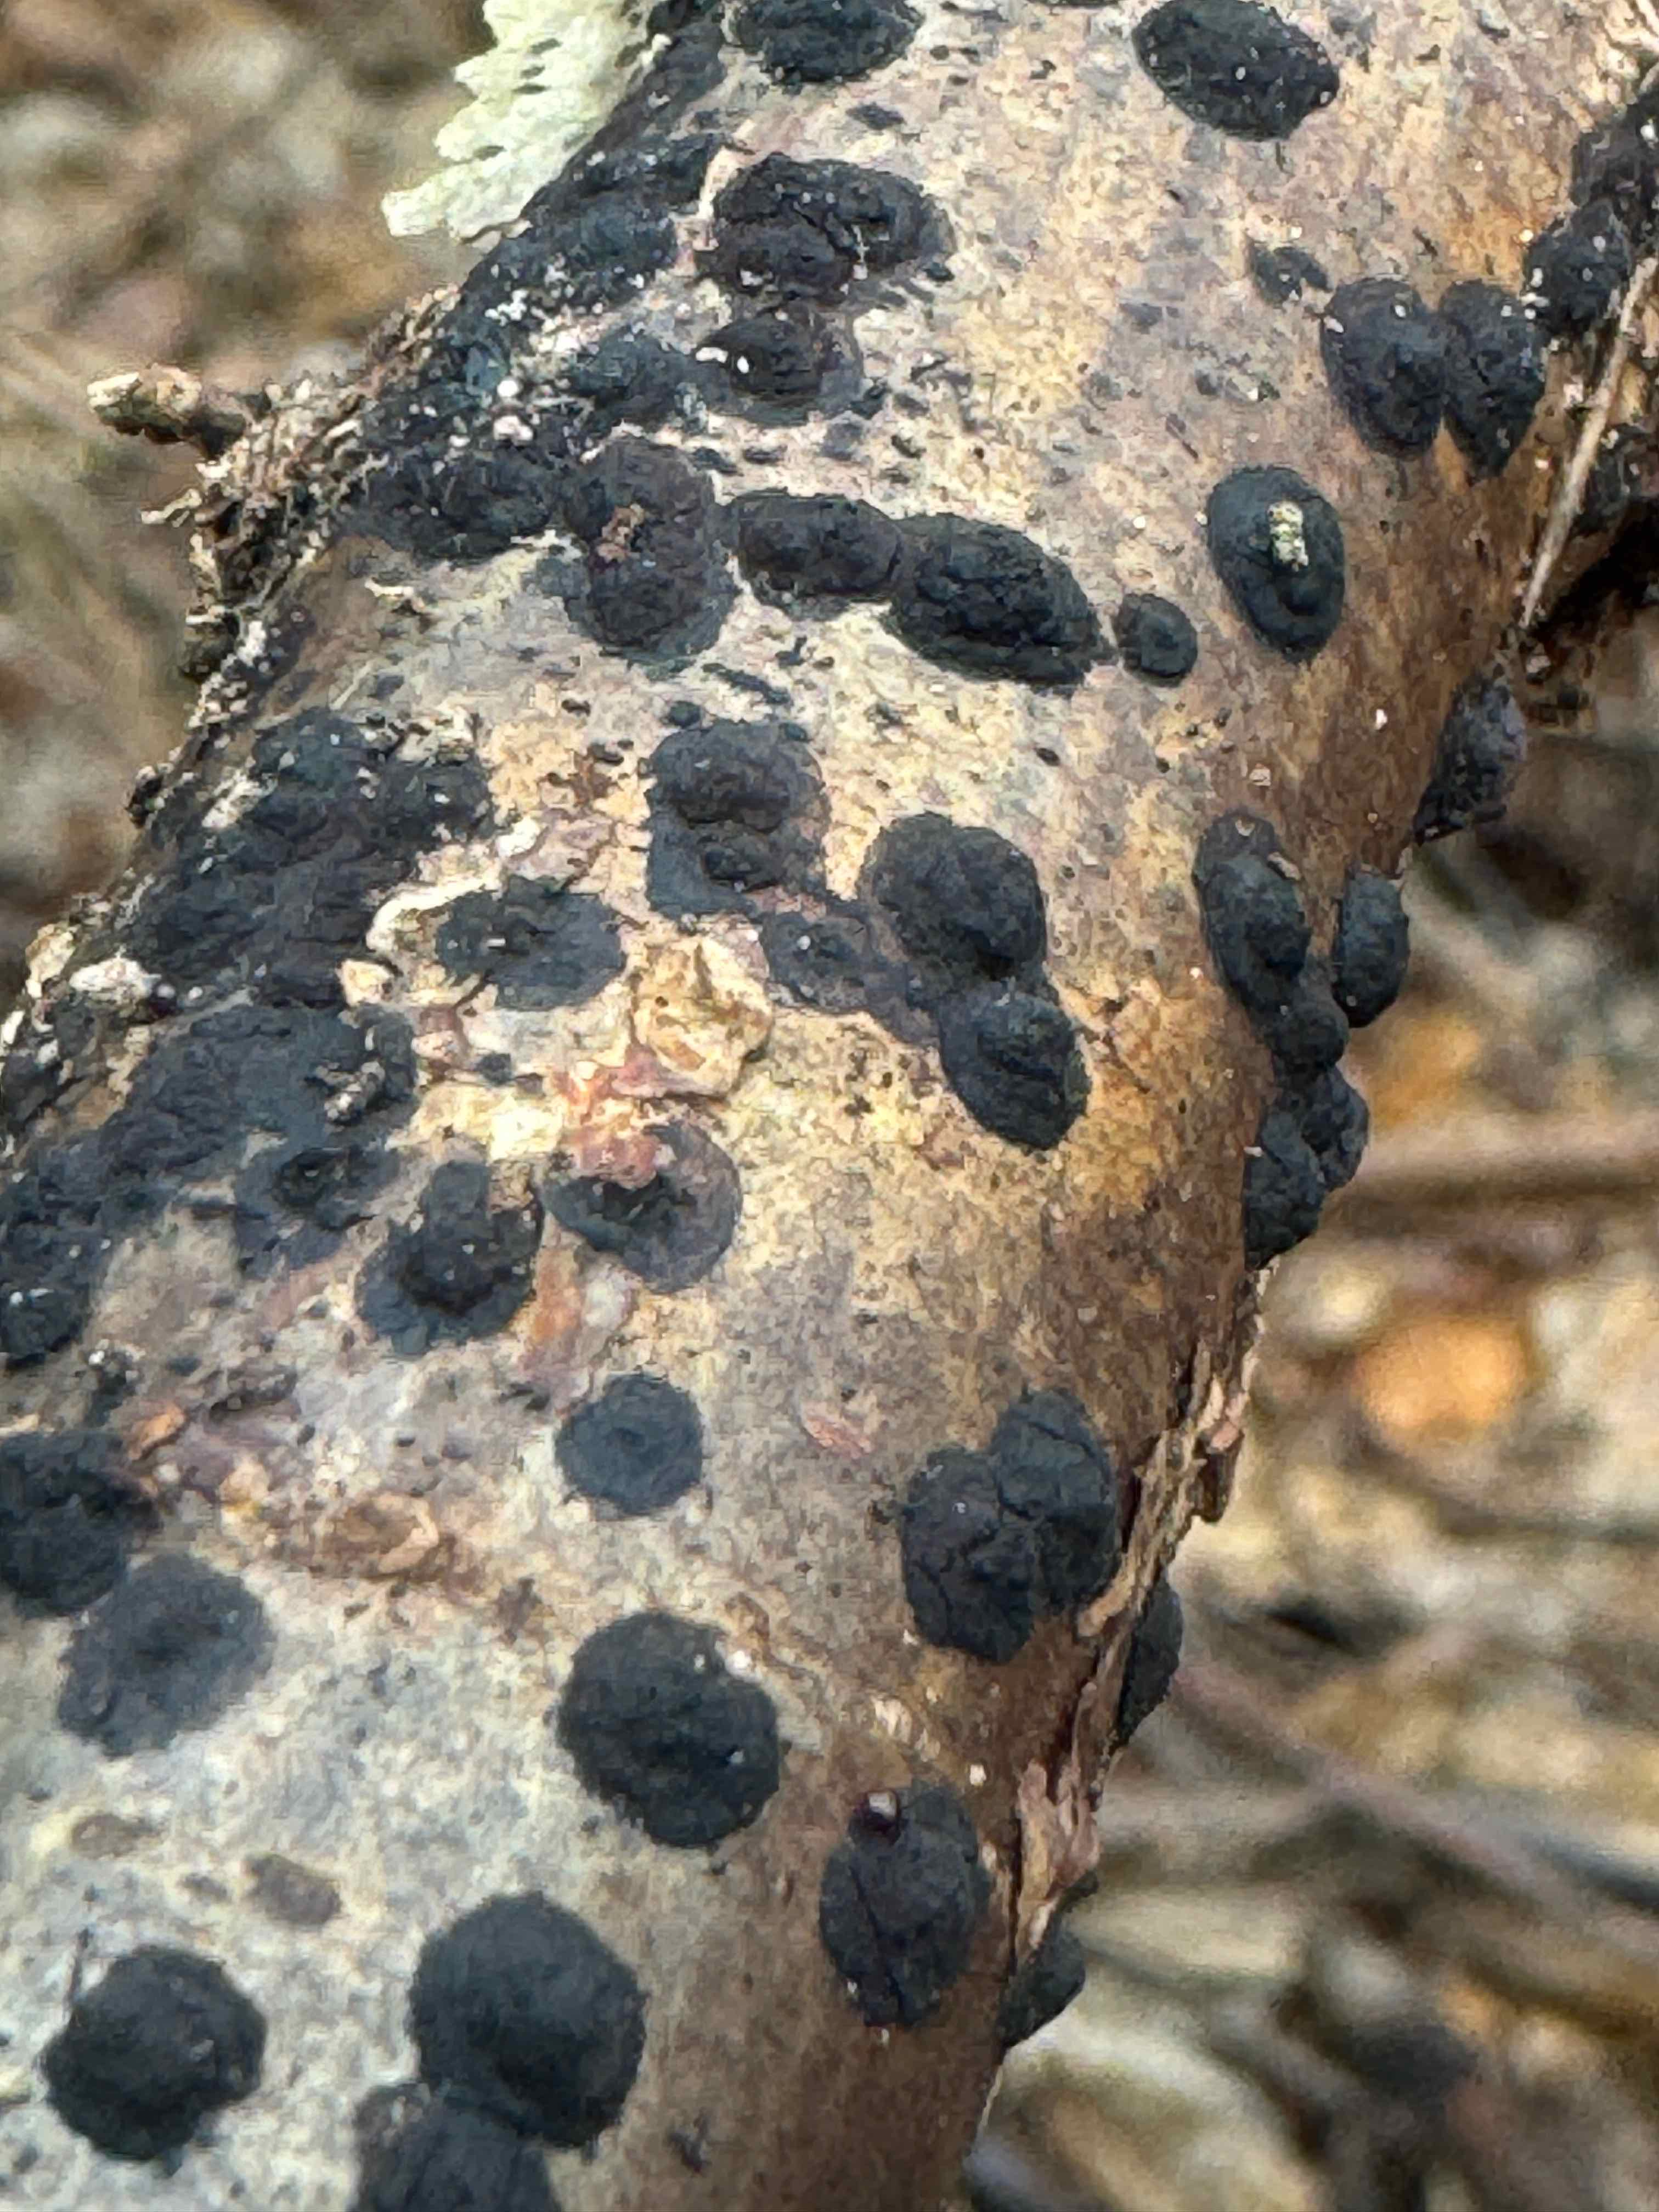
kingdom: Fungi
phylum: Ascomycota
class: Sordariomycetes
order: Xylariales
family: Hypoxylaceae
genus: Hypoxylon
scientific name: Hypoxylon fuscum
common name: kegleformet kulbær
